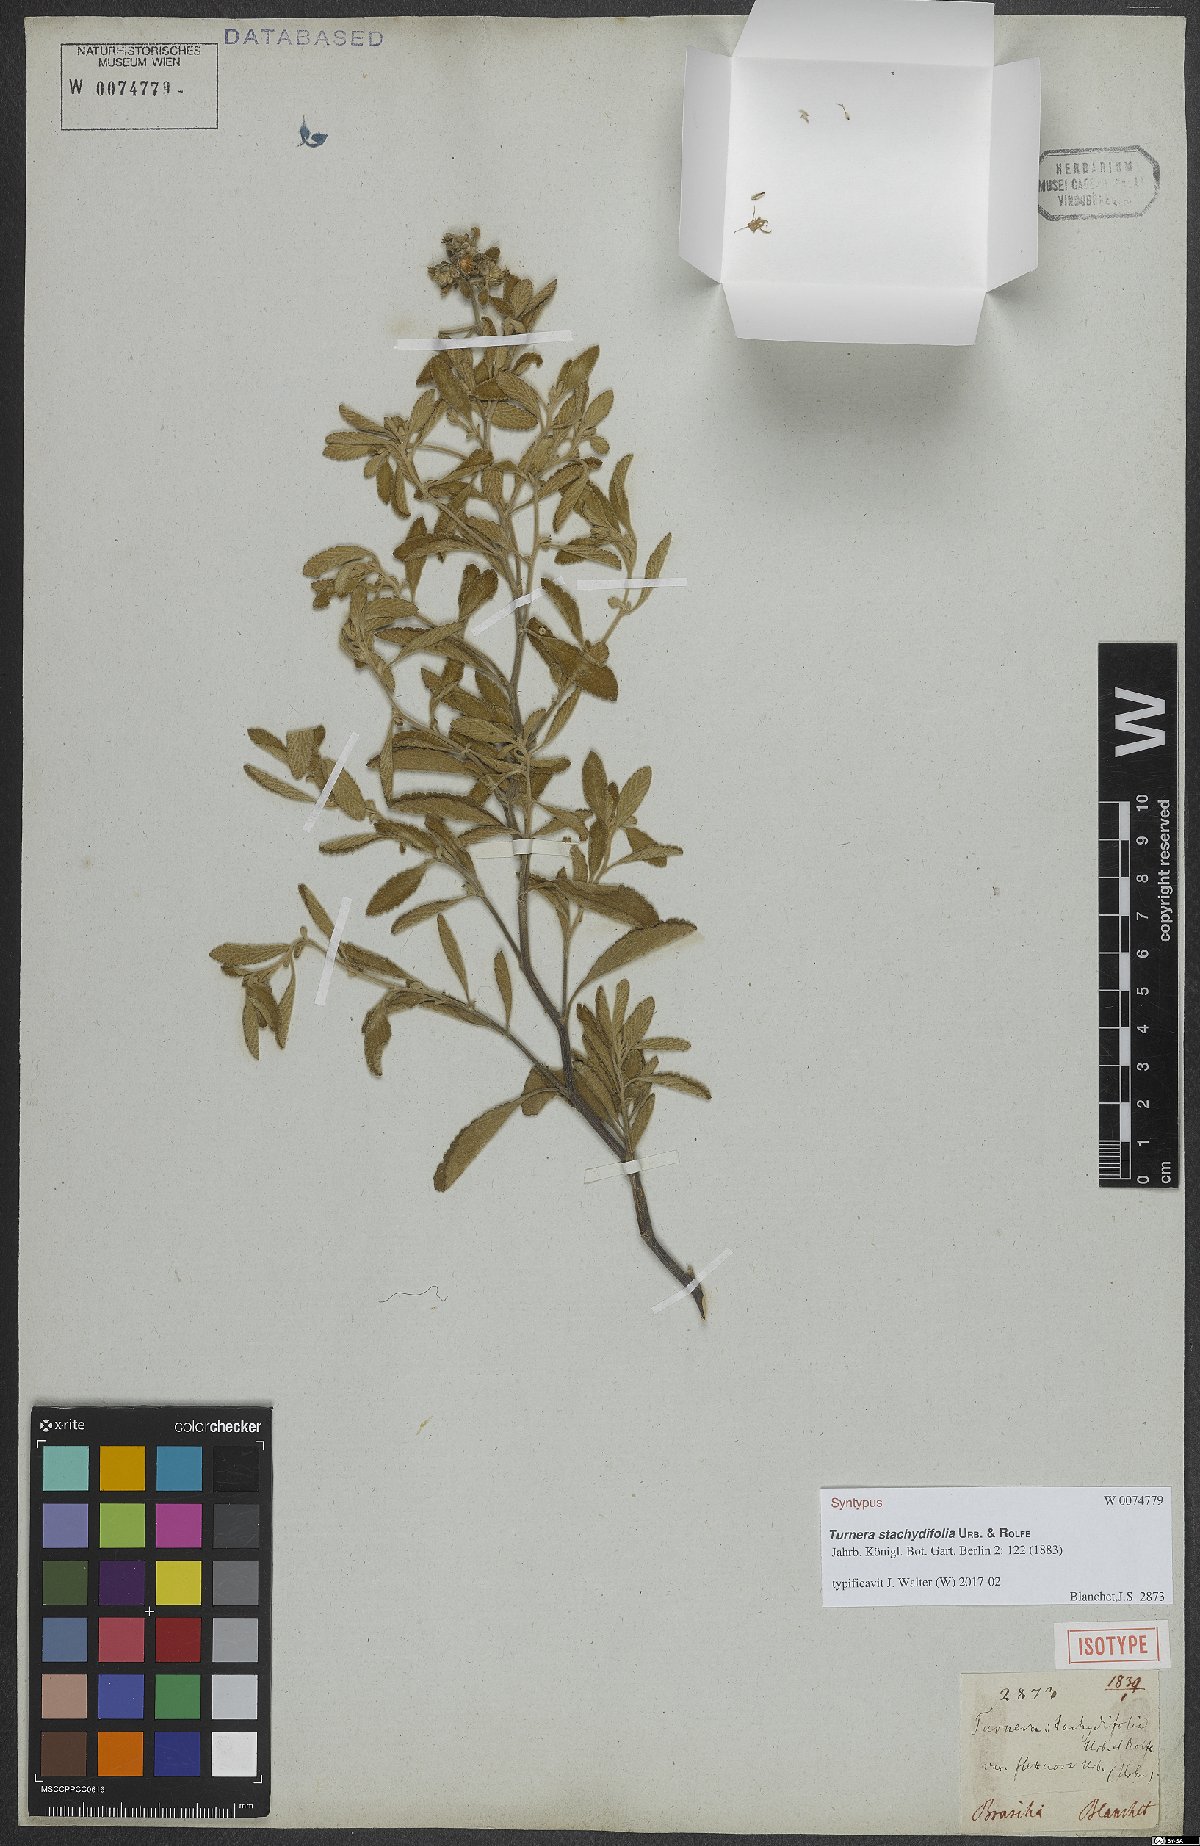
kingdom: Plantae
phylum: Tracheophyta
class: Magnoliopsida
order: Malpighiales
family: Turneraceae
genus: Turnera
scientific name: Turnera stachydifolia
